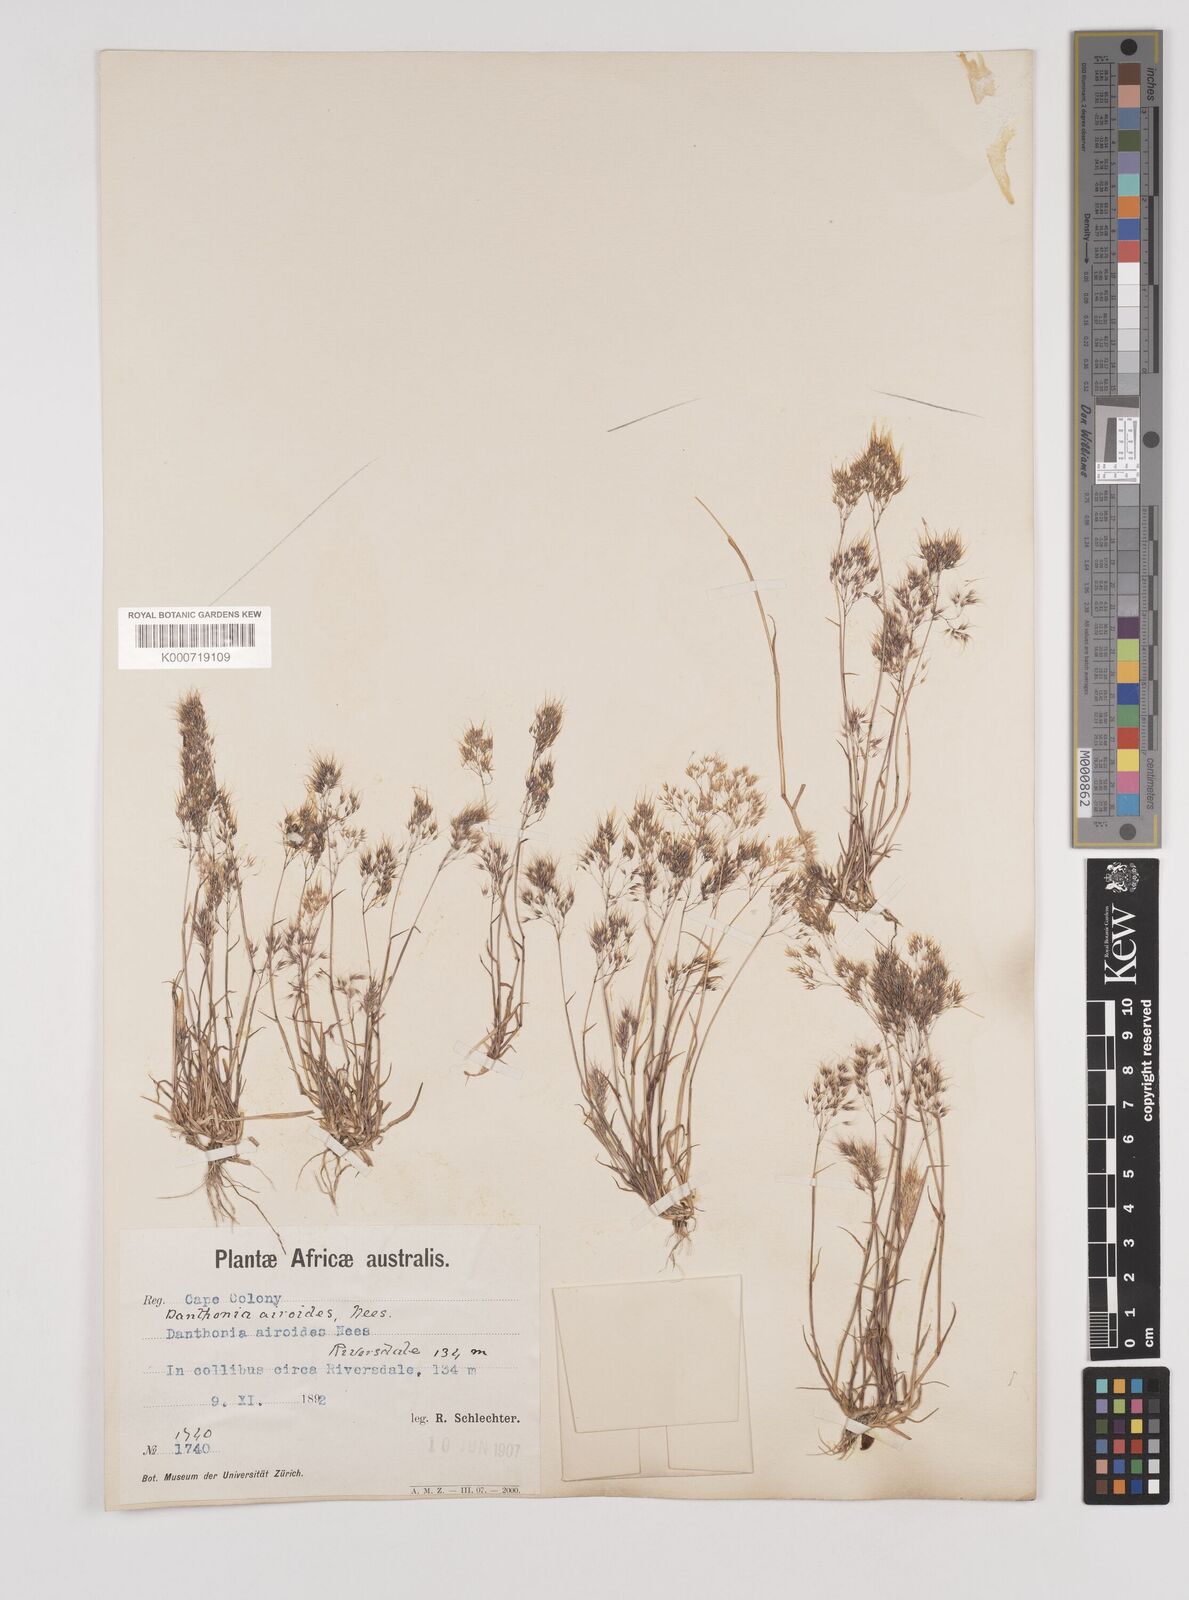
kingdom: Plantae
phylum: Tracheophyta
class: Liliopsida
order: Poales
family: Poaceae
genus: Pentameris
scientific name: Pentameris airoides
